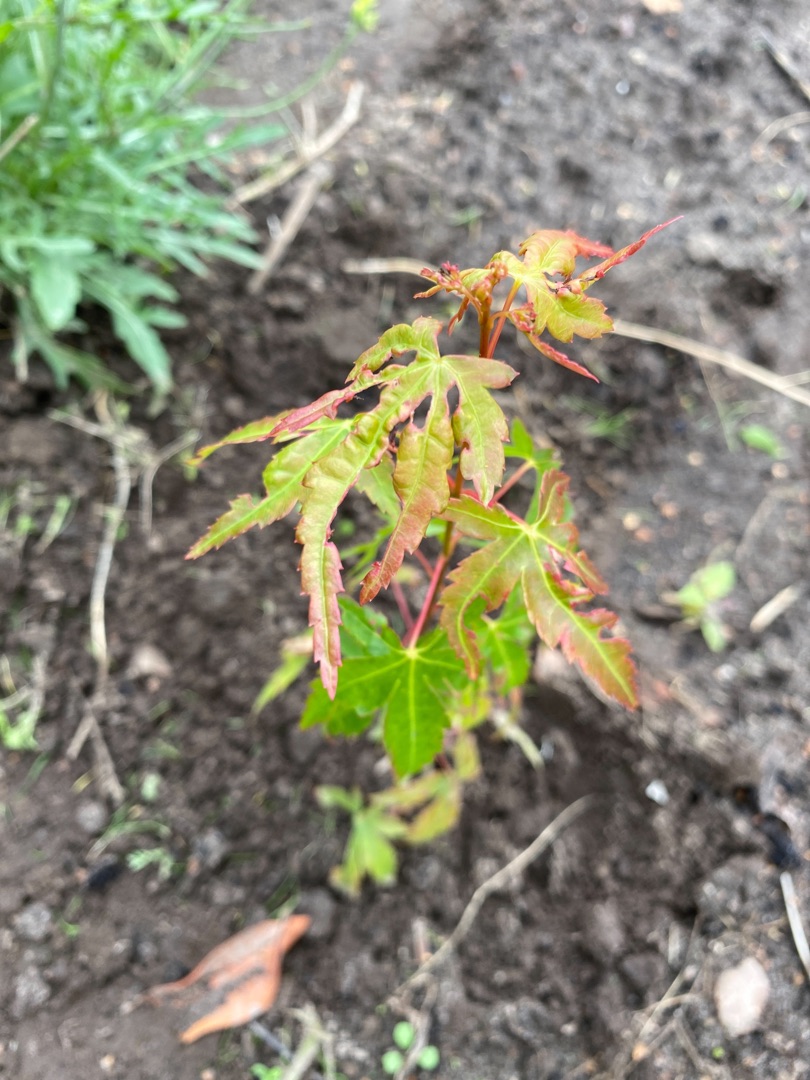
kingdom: Plantae
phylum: Tracheophyta
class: Magnoliopsida
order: Sapindales
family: Sapindaceae
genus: Acer
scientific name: Acer
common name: Lønslægten
